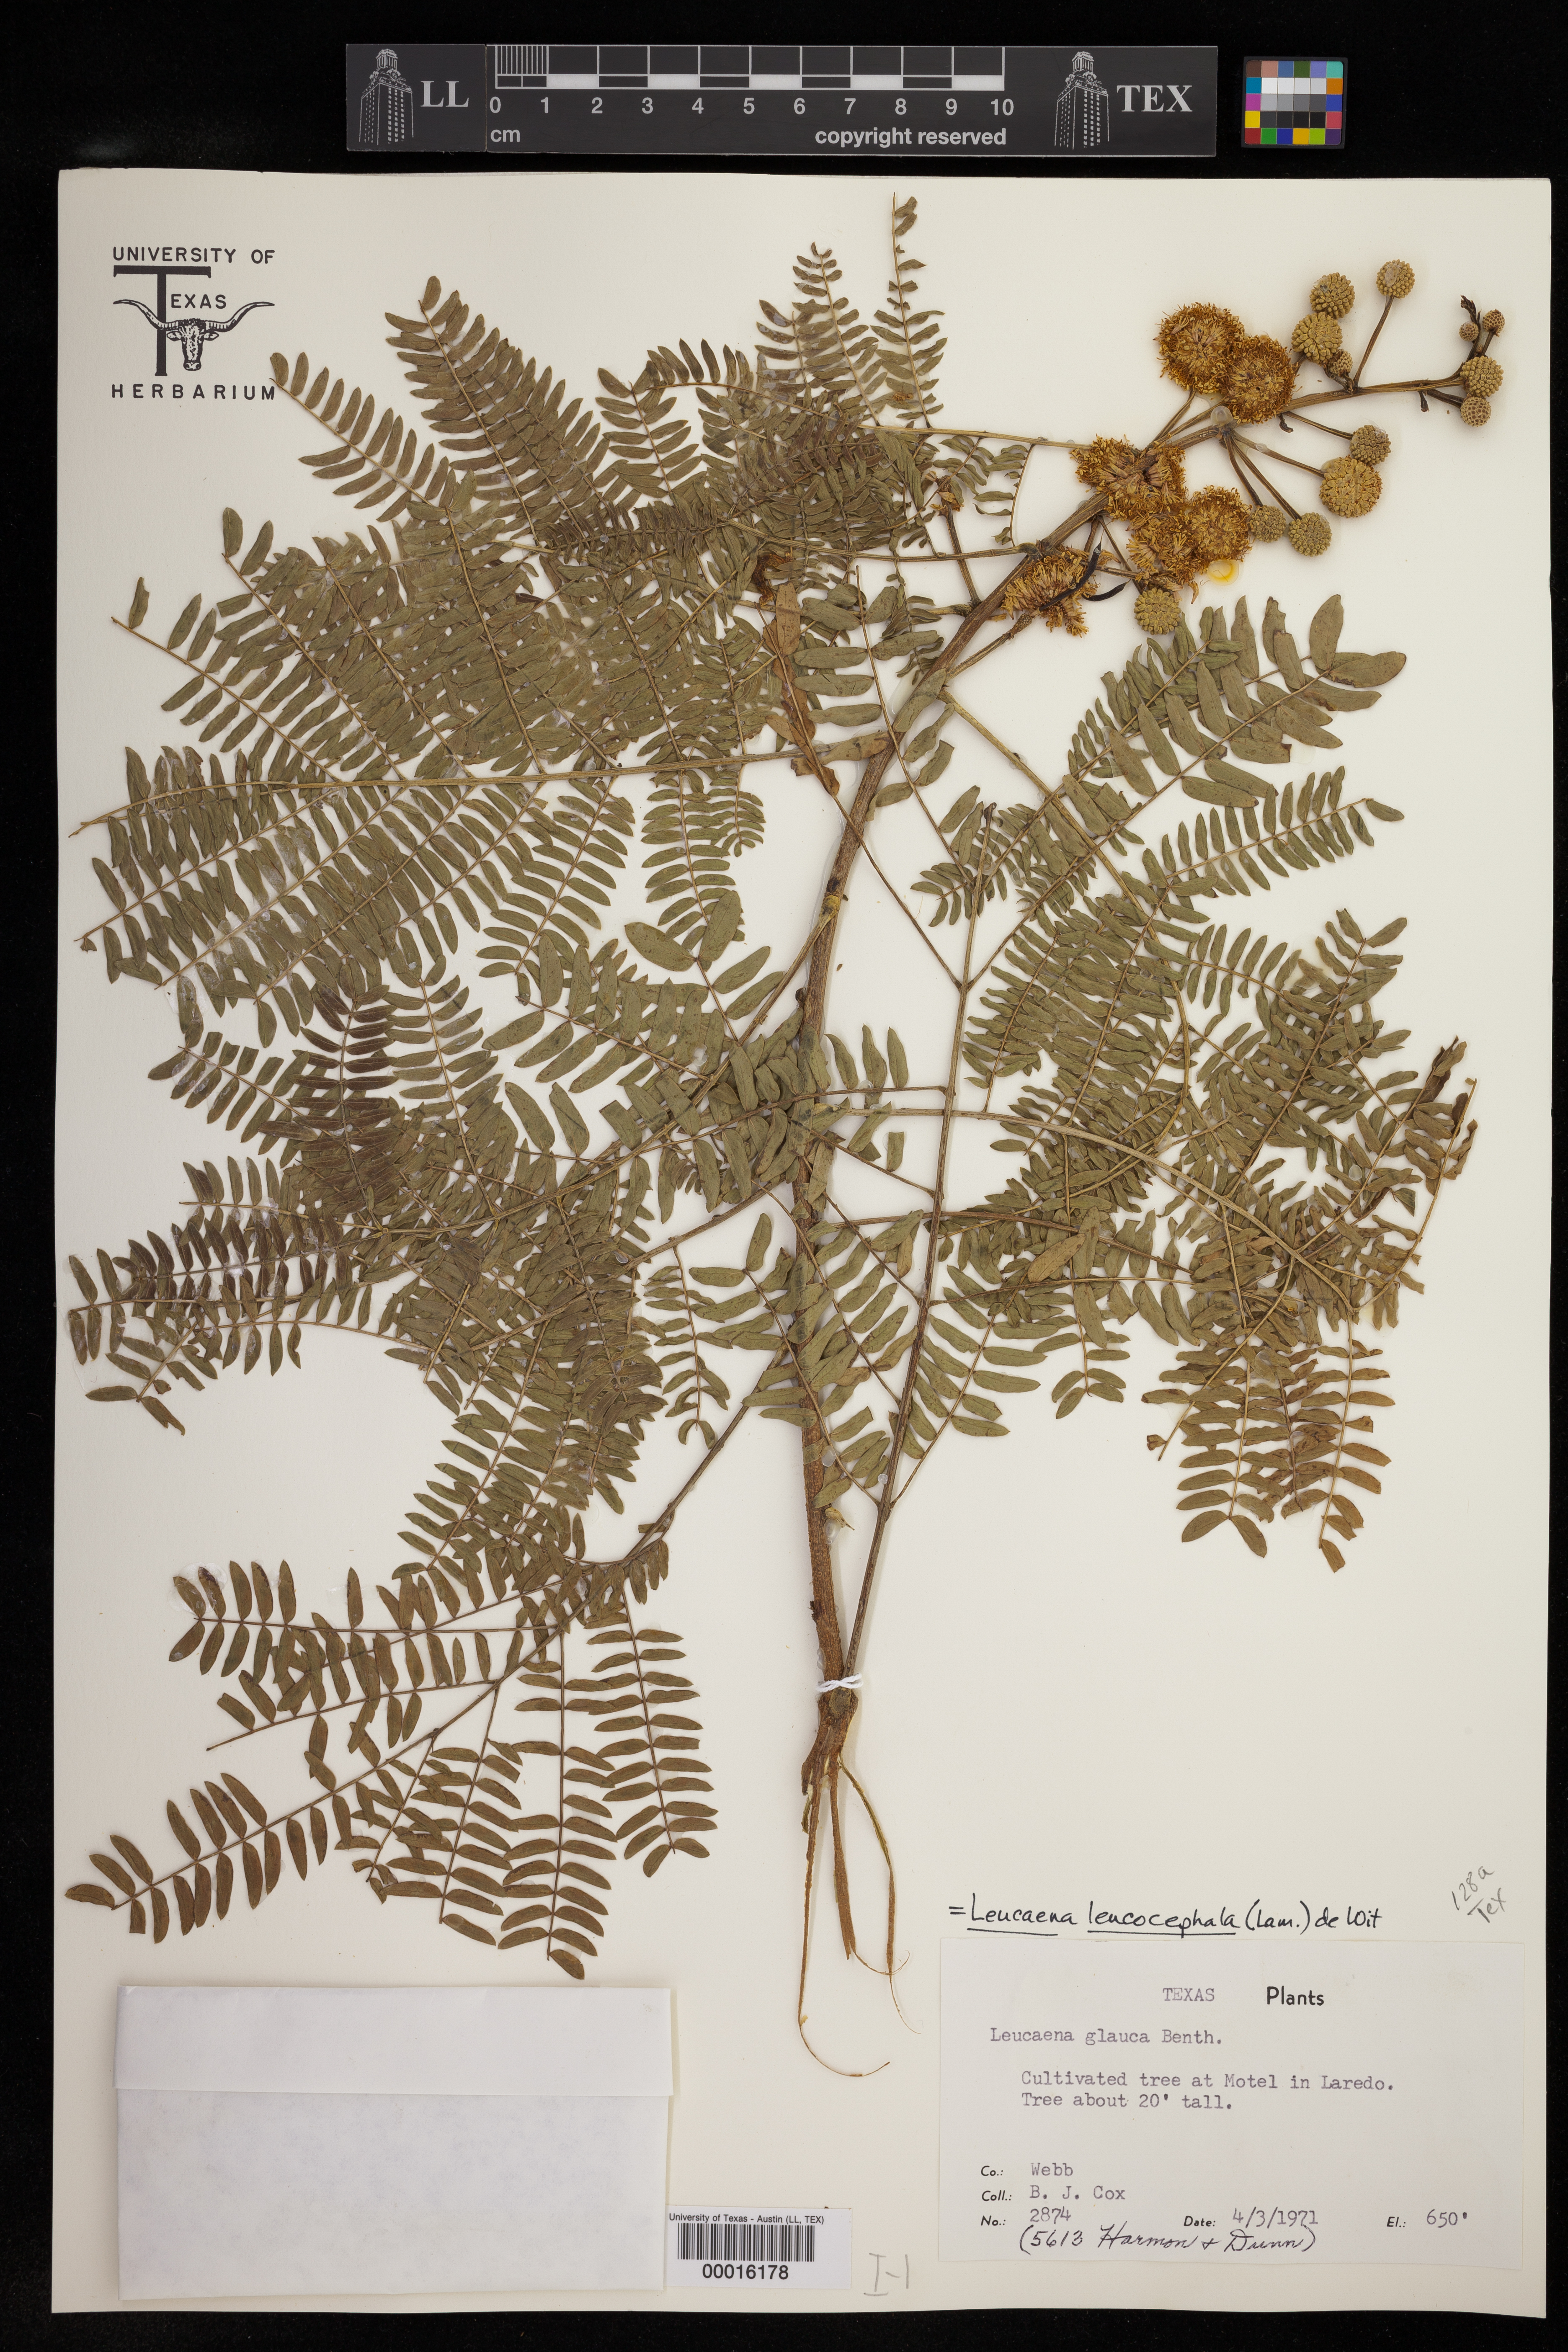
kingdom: Plantae
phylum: Tracheophyta
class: Magnoliopsida
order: Fabales
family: Fabaceae
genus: Leucaena
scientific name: Leucaena leucocephala
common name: White leadtree
